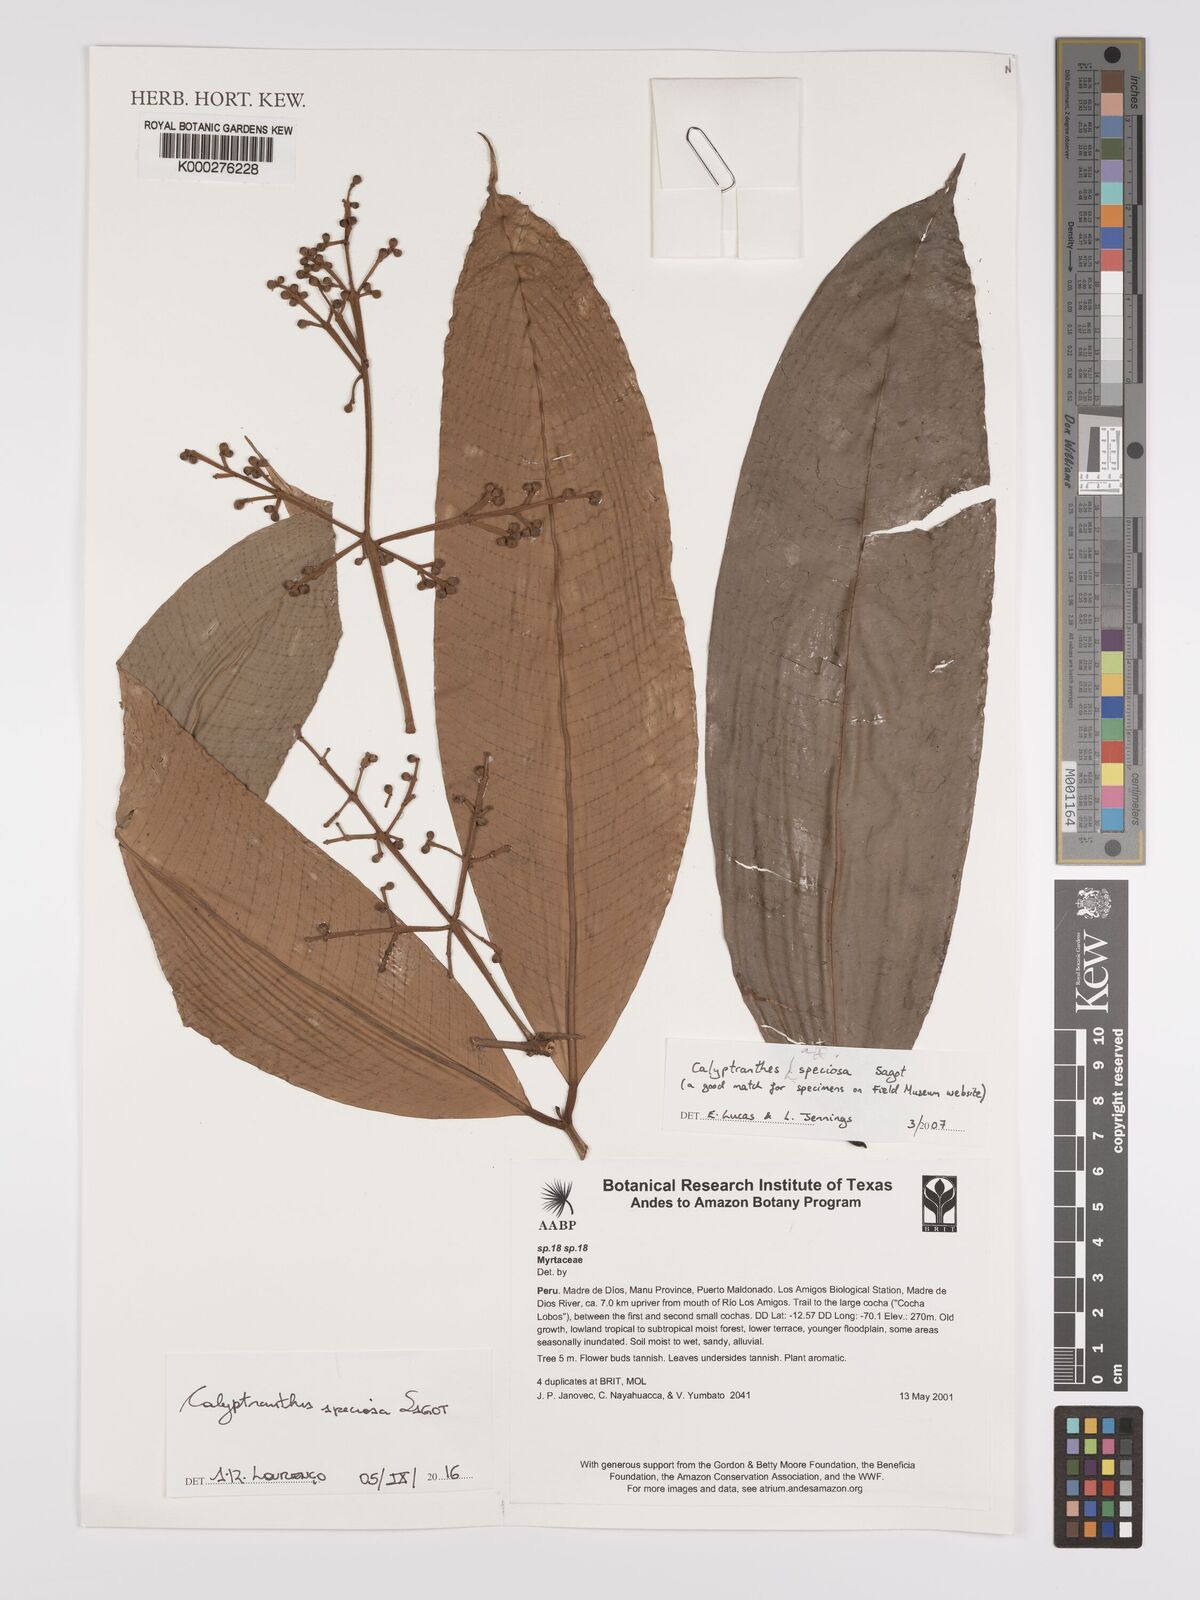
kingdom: Plantae
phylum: Tracheophyta
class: Magnoliopsida
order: Myrtales
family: Myrtaceae
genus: Myrcia
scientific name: Myrcia neospeciosa
